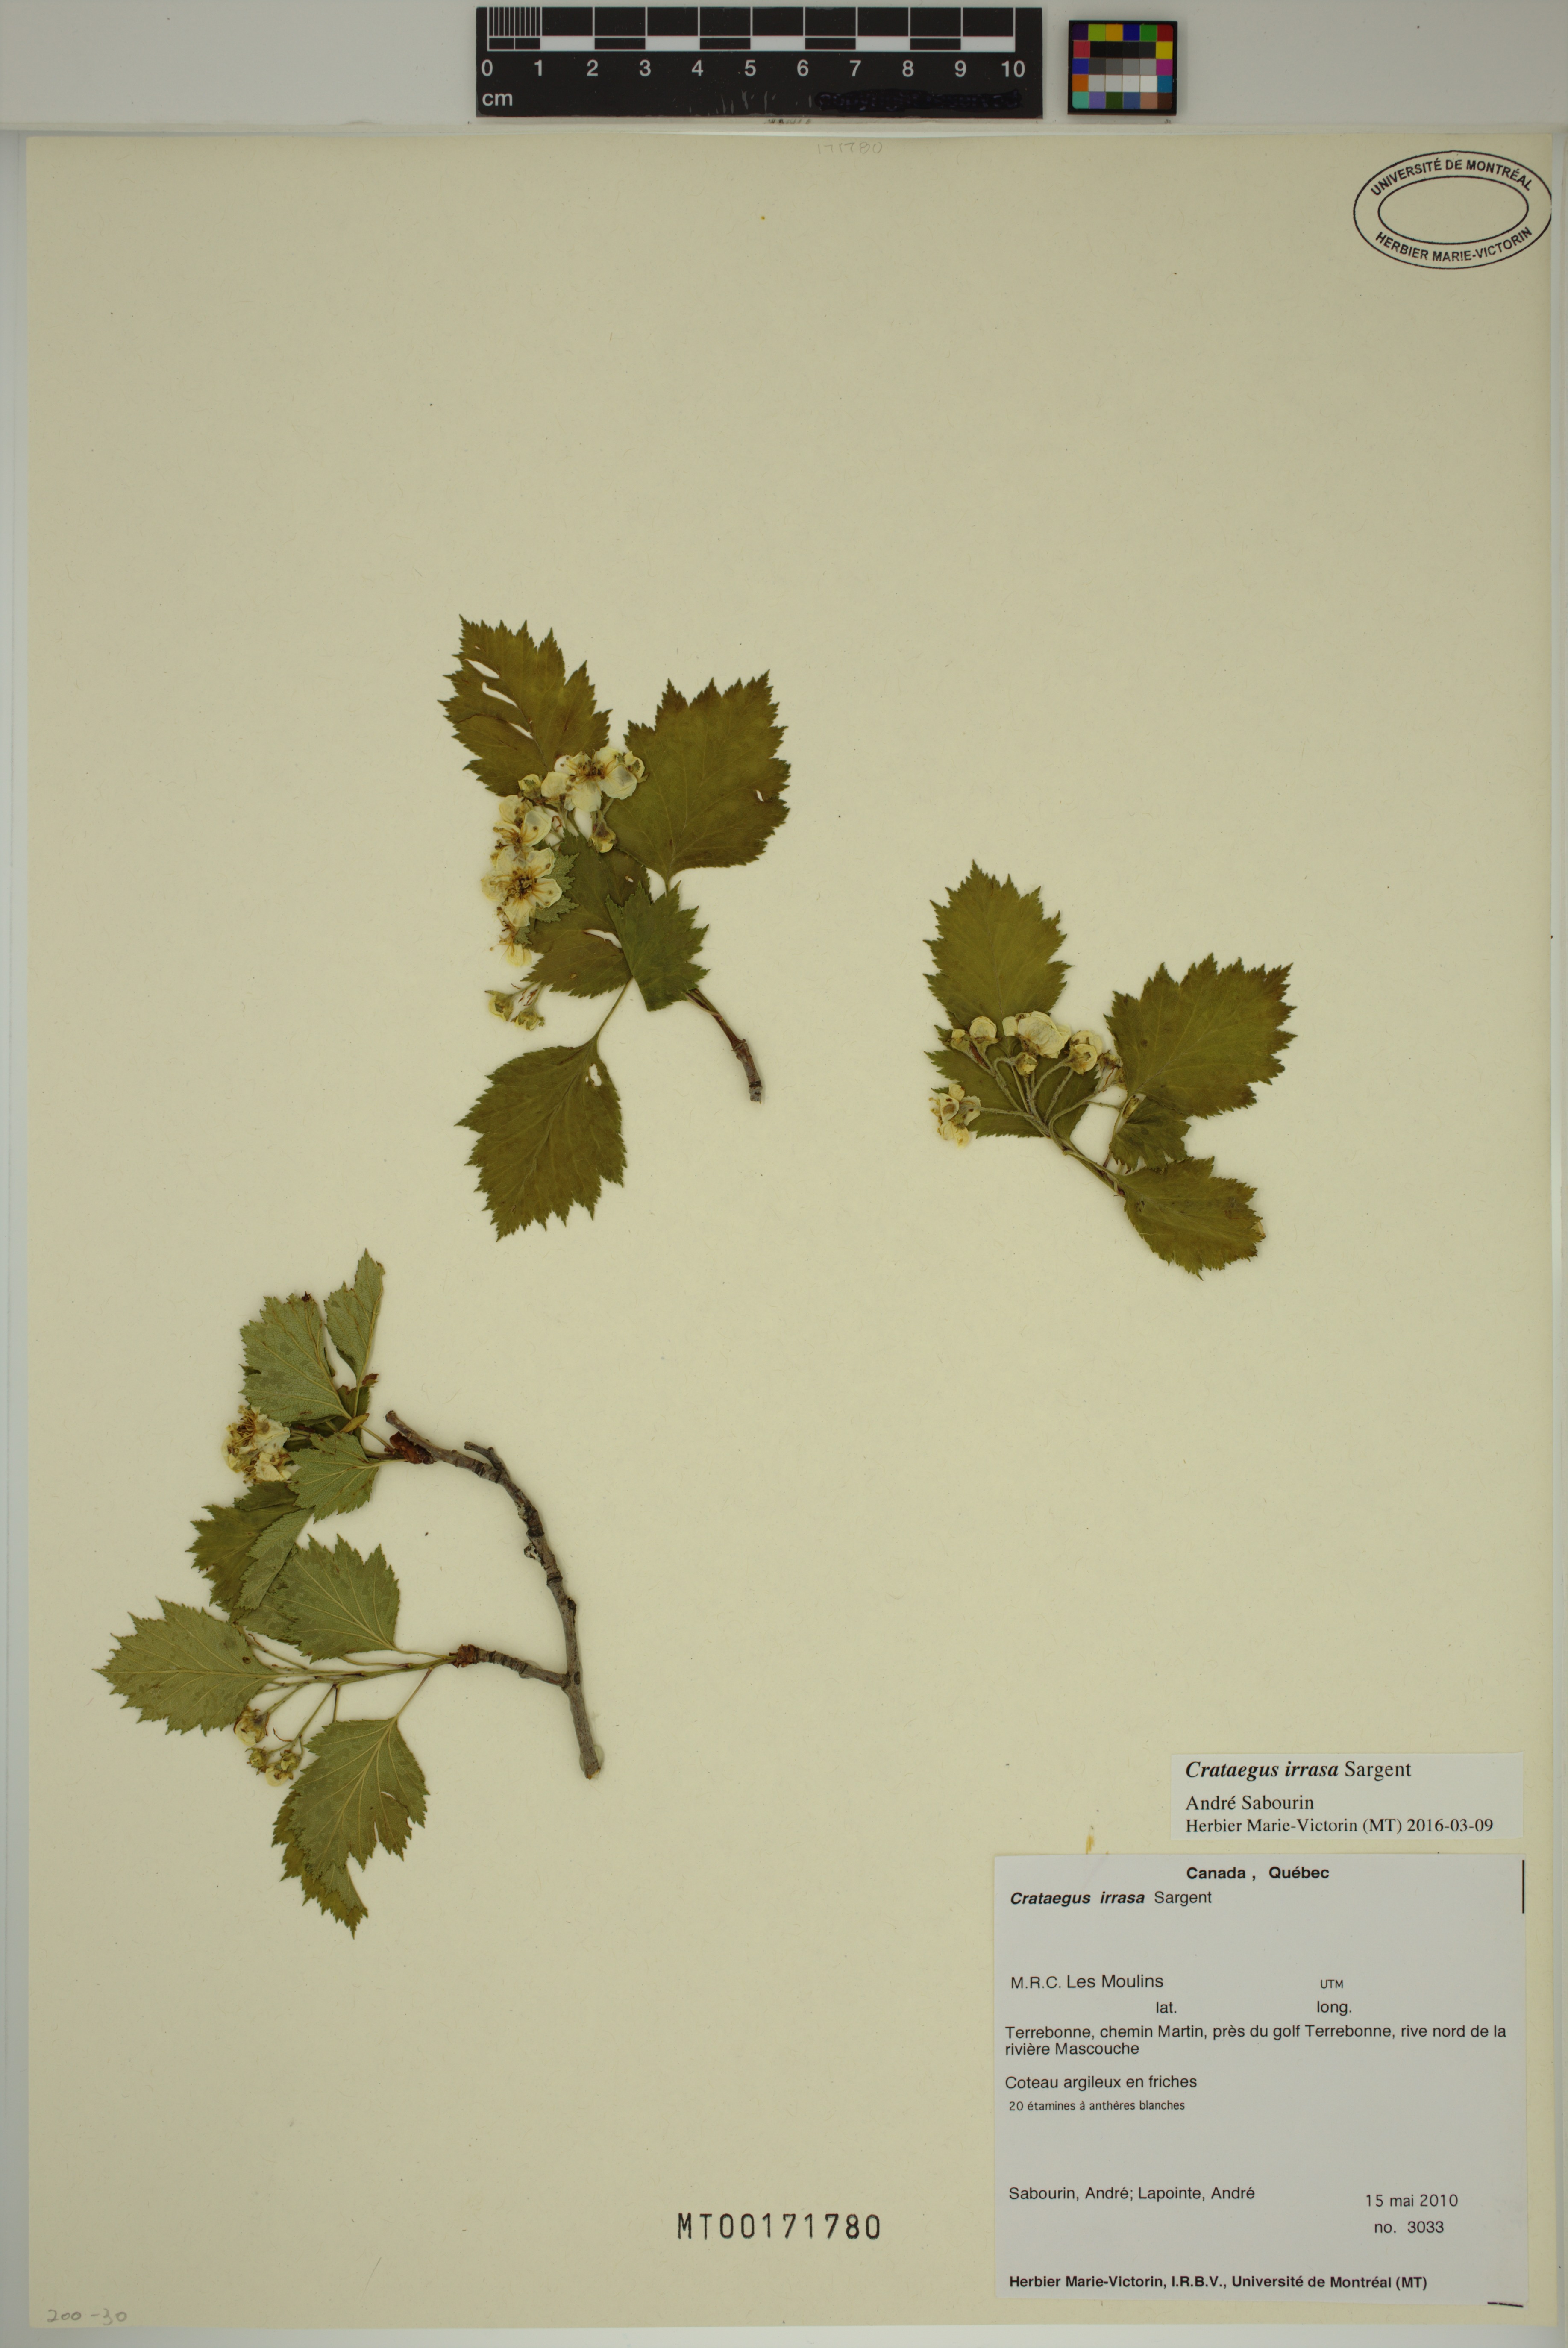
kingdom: Plantae
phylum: Tracheophyta
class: Magnoliopsida
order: Rosales
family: Rosaceae
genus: Crataegus
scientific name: Crataegus irrasa
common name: Unshorn hawthorn
